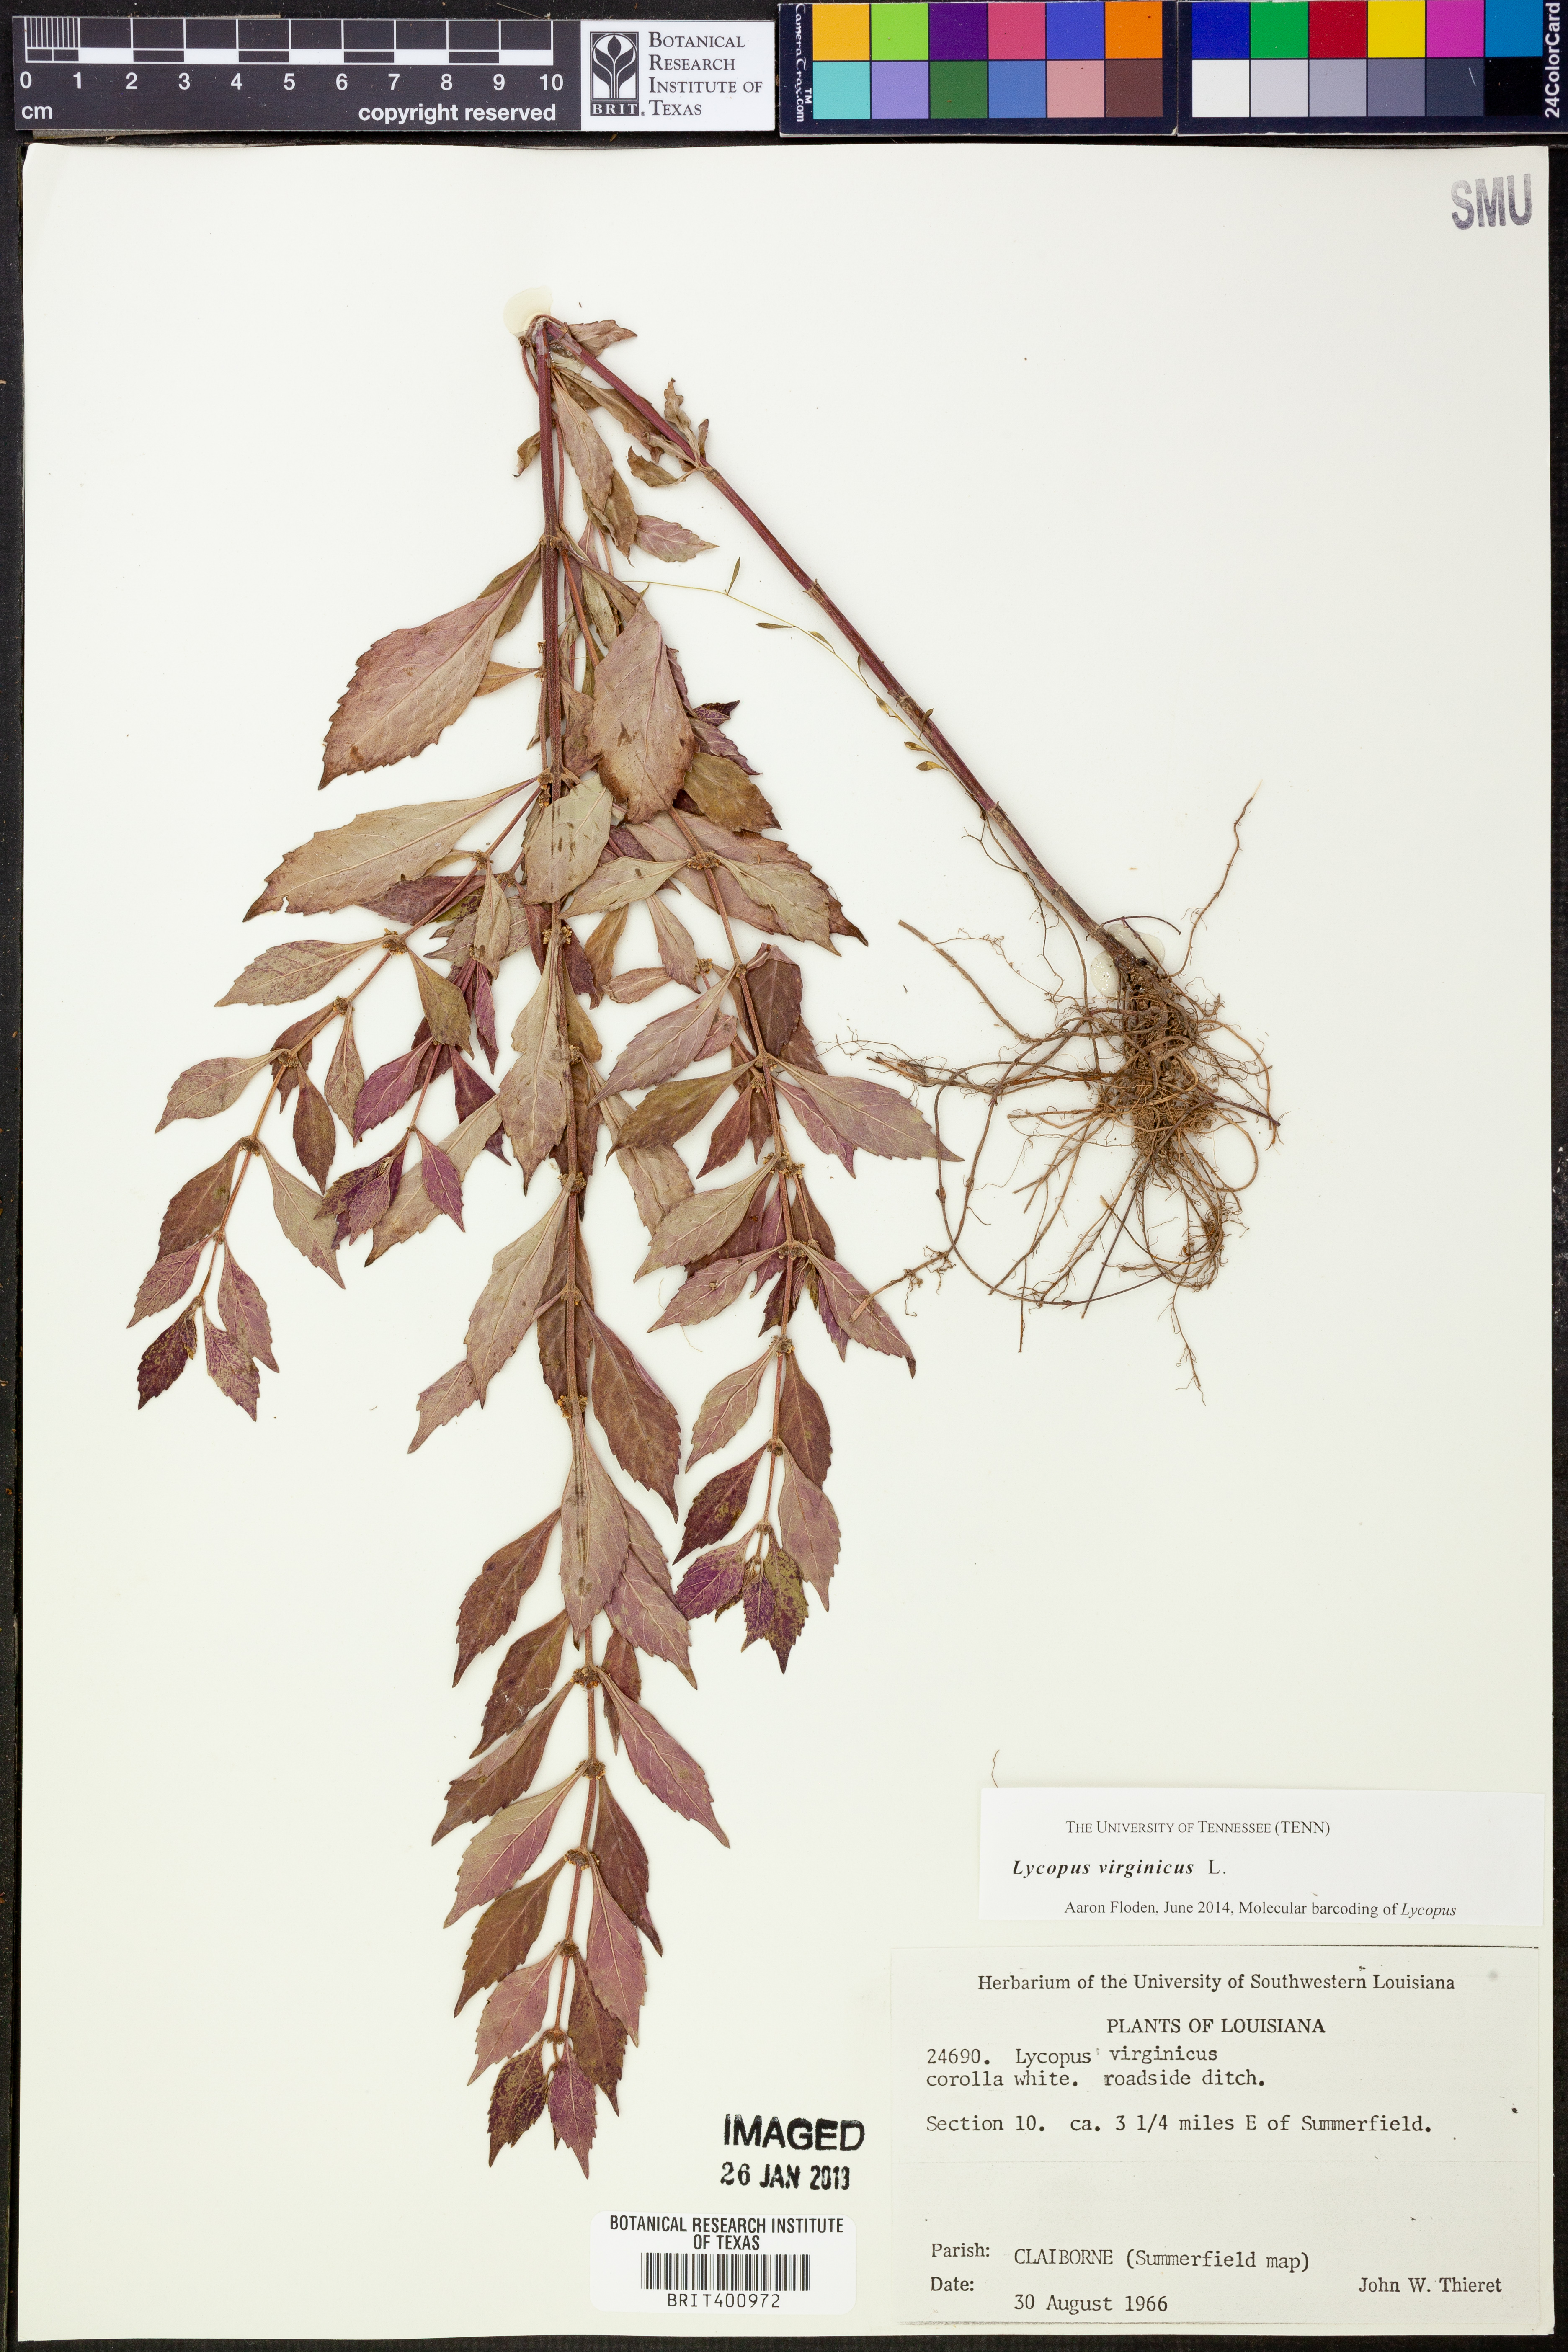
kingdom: Plantae
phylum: Tracheophyta
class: Magnoliopsida
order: Lamiales
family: Lamiaceae
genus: Lycopus
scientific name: Lycopus virginicus
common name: Bugleweed
